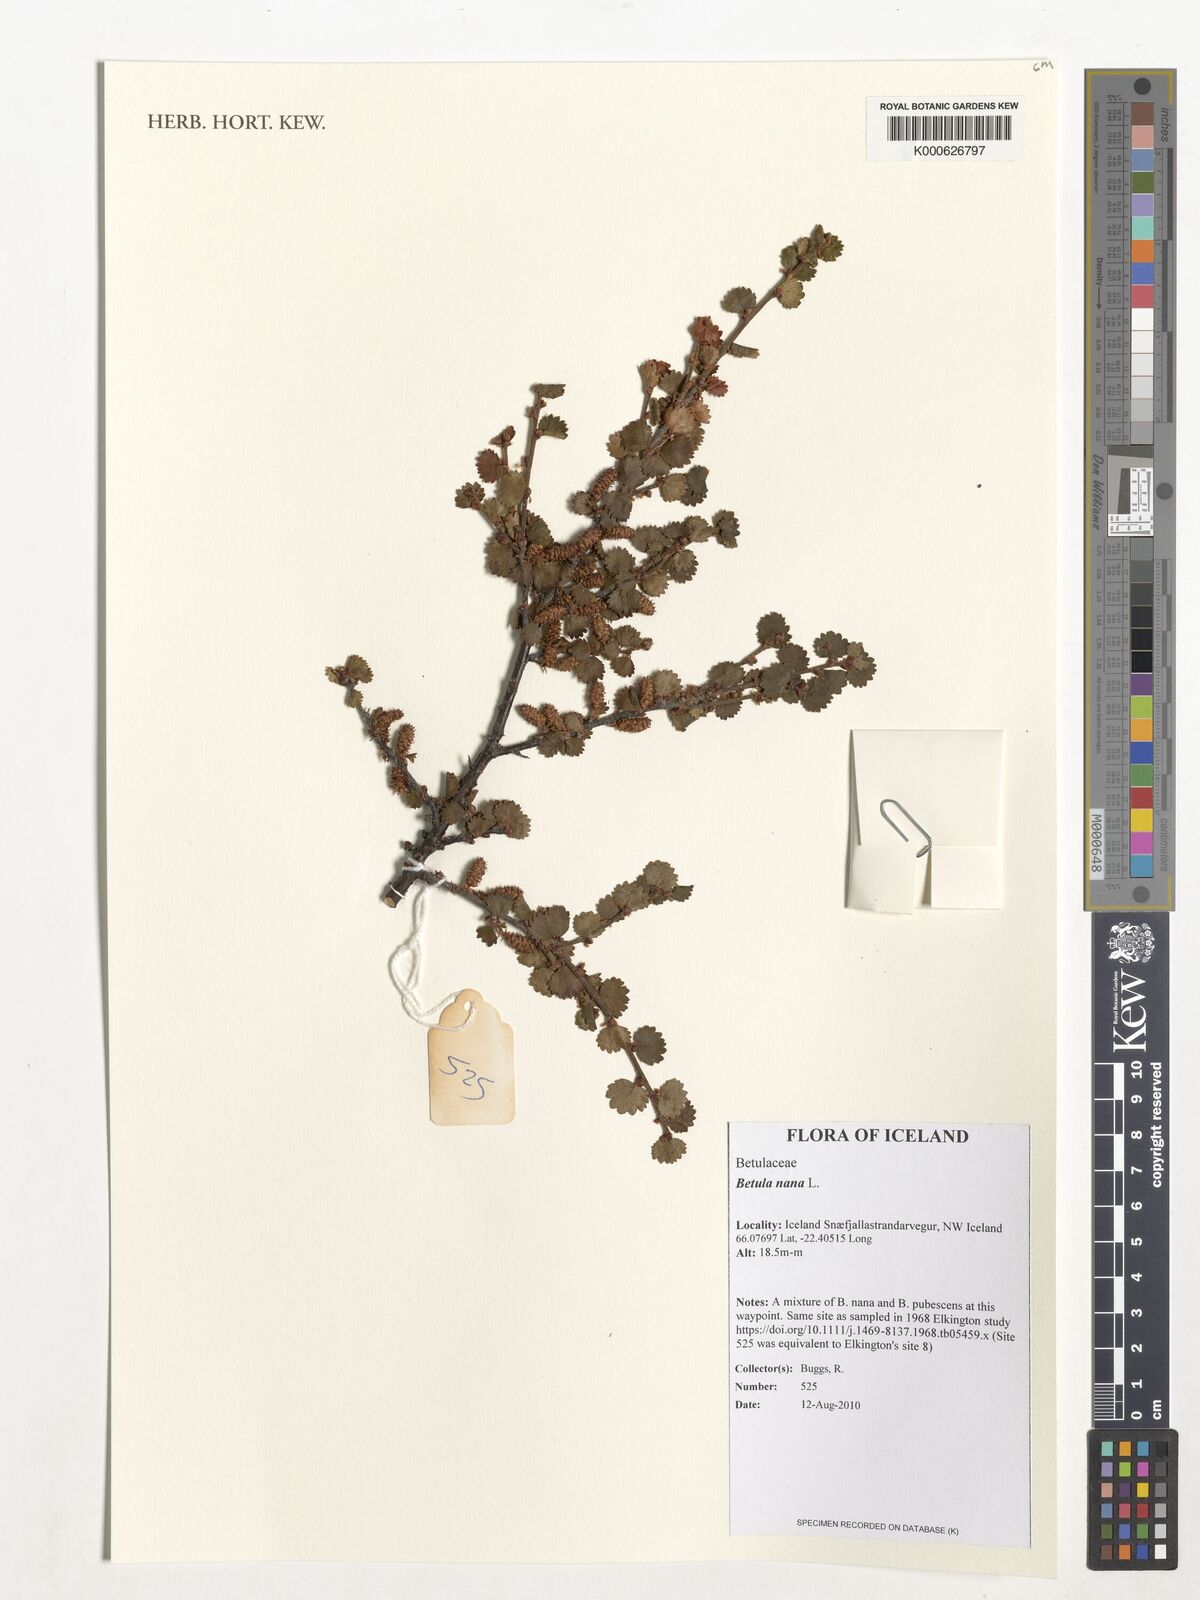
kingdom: Plantae
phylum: Tracheophyta
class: Magnoliopsida
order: Fagales
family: Betulaceae
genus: Betula
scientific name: Betula nana
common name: Arctic dwarf birch
